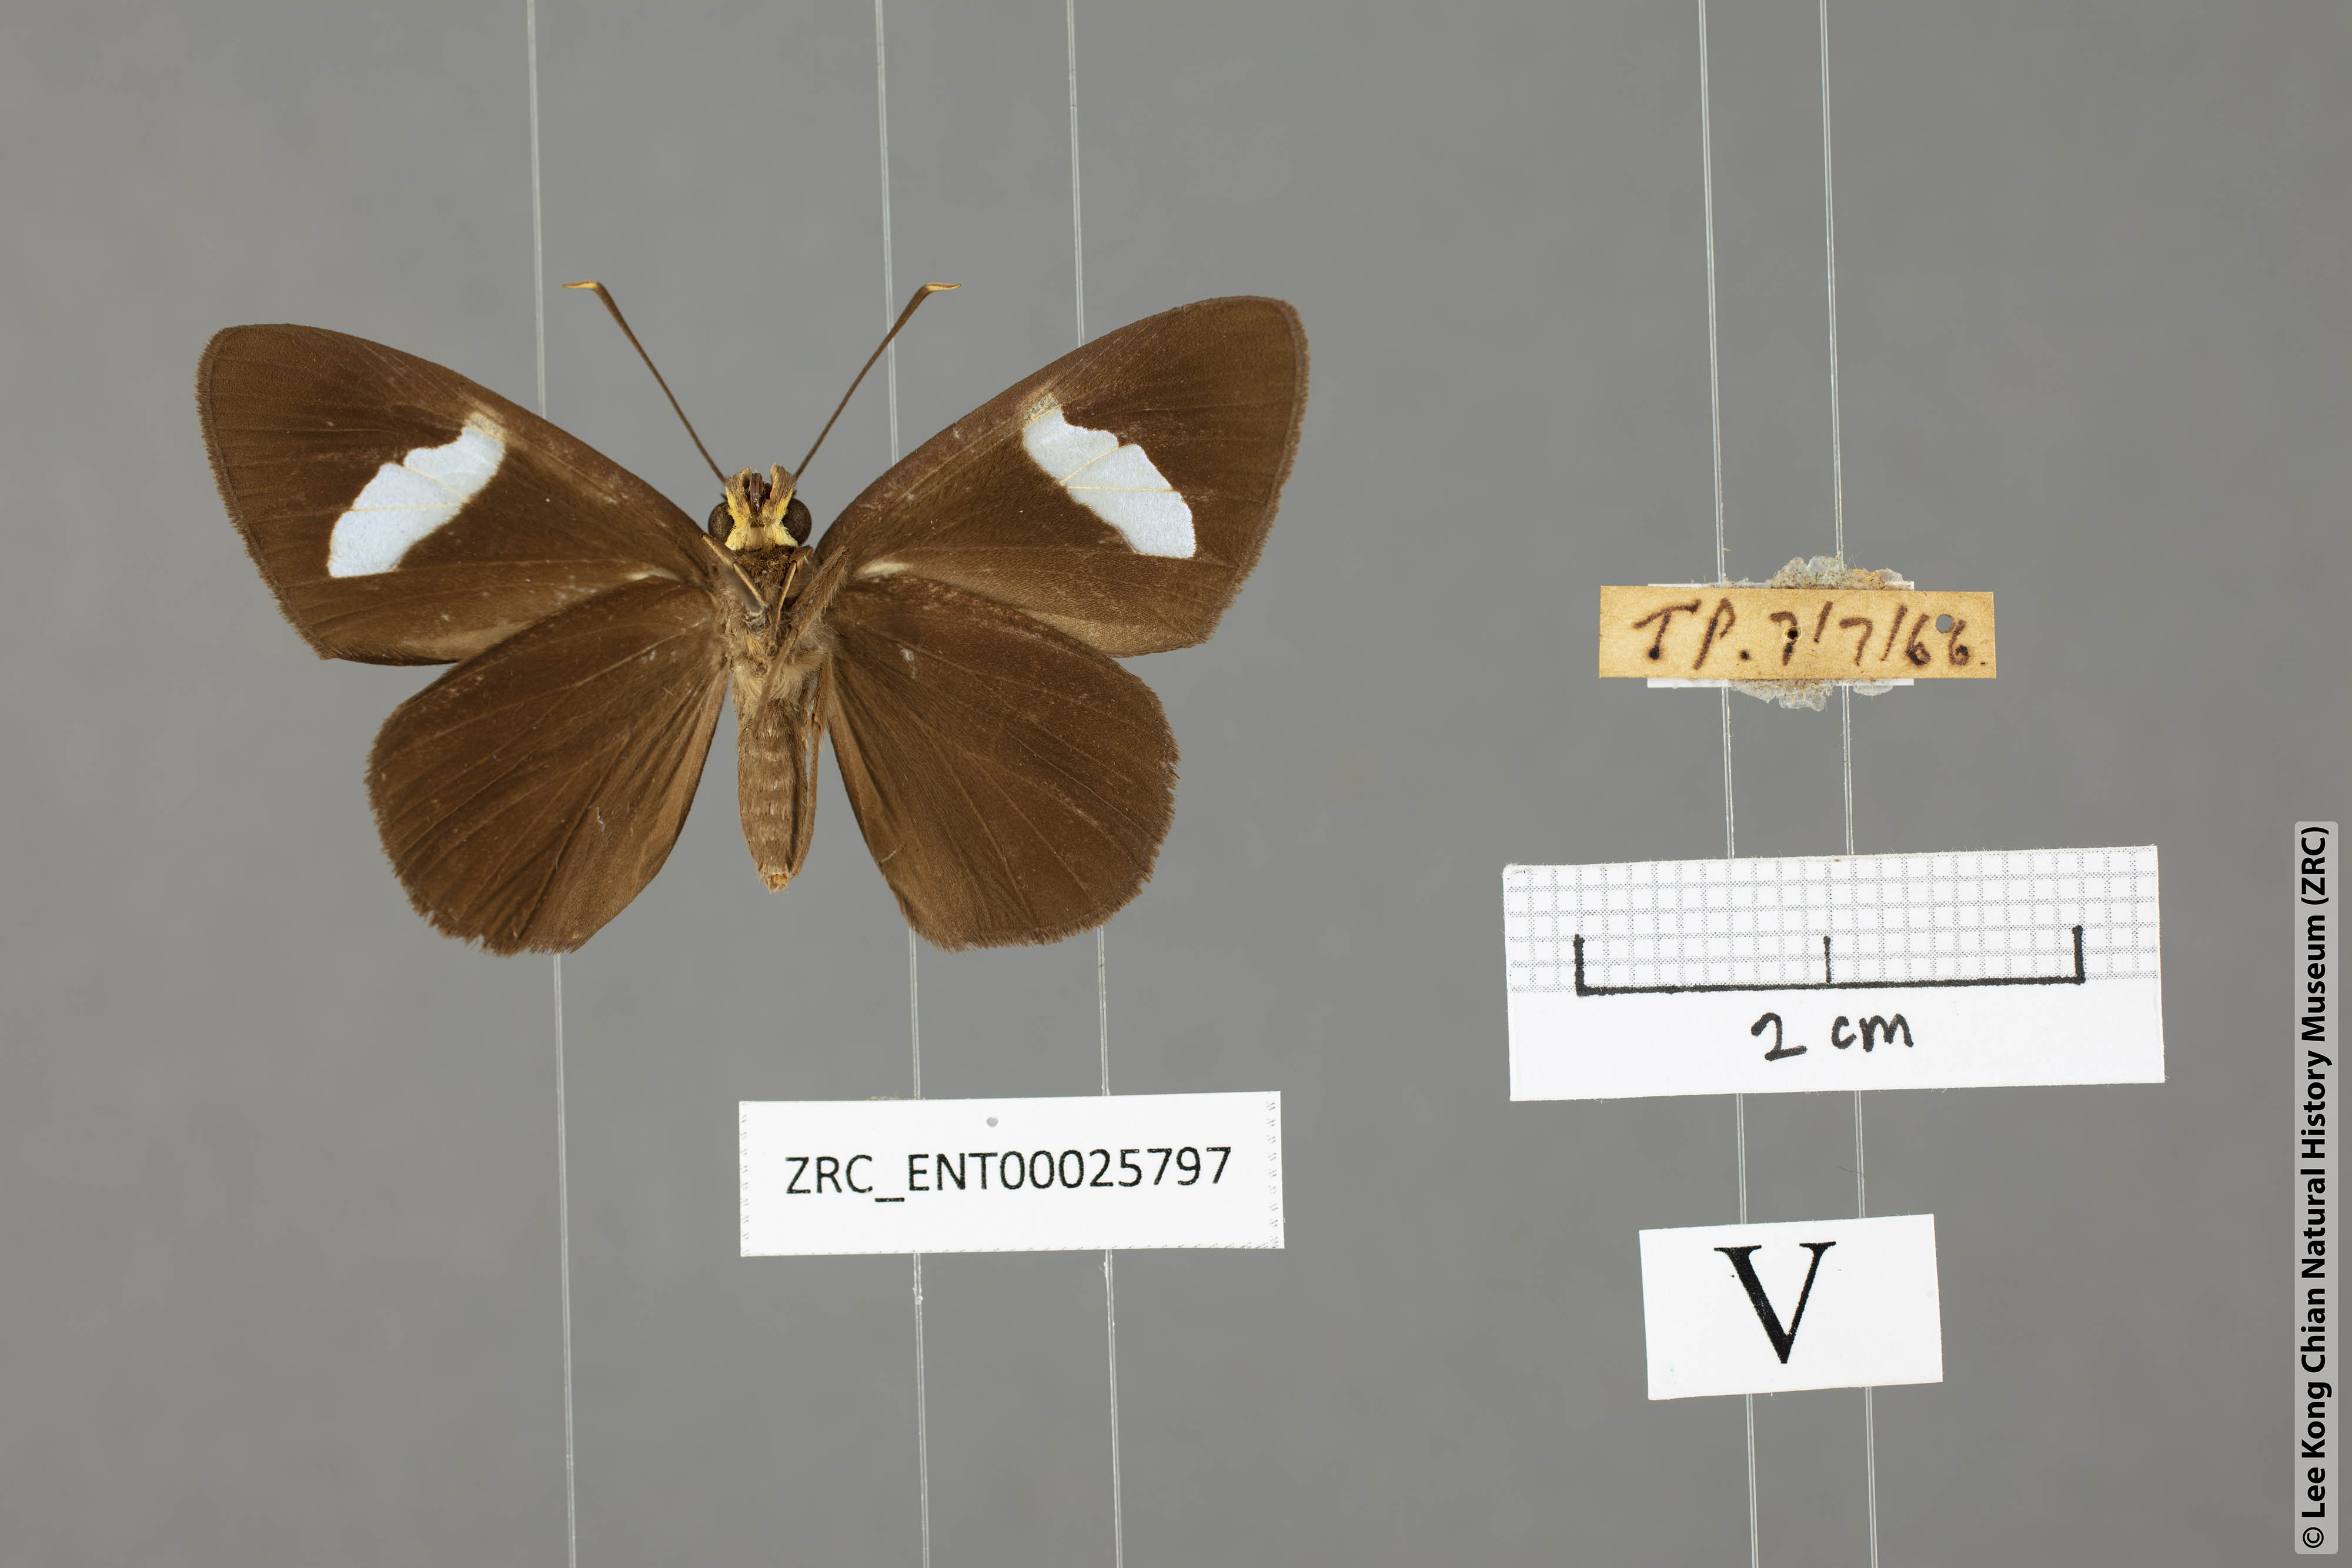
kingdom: Animalia
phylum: Arthropoda
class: Insecta
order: Lepidoptera
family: Hesperiidae
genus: Celaenorrhinus
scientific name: Celaenorrhinus ficulnea
